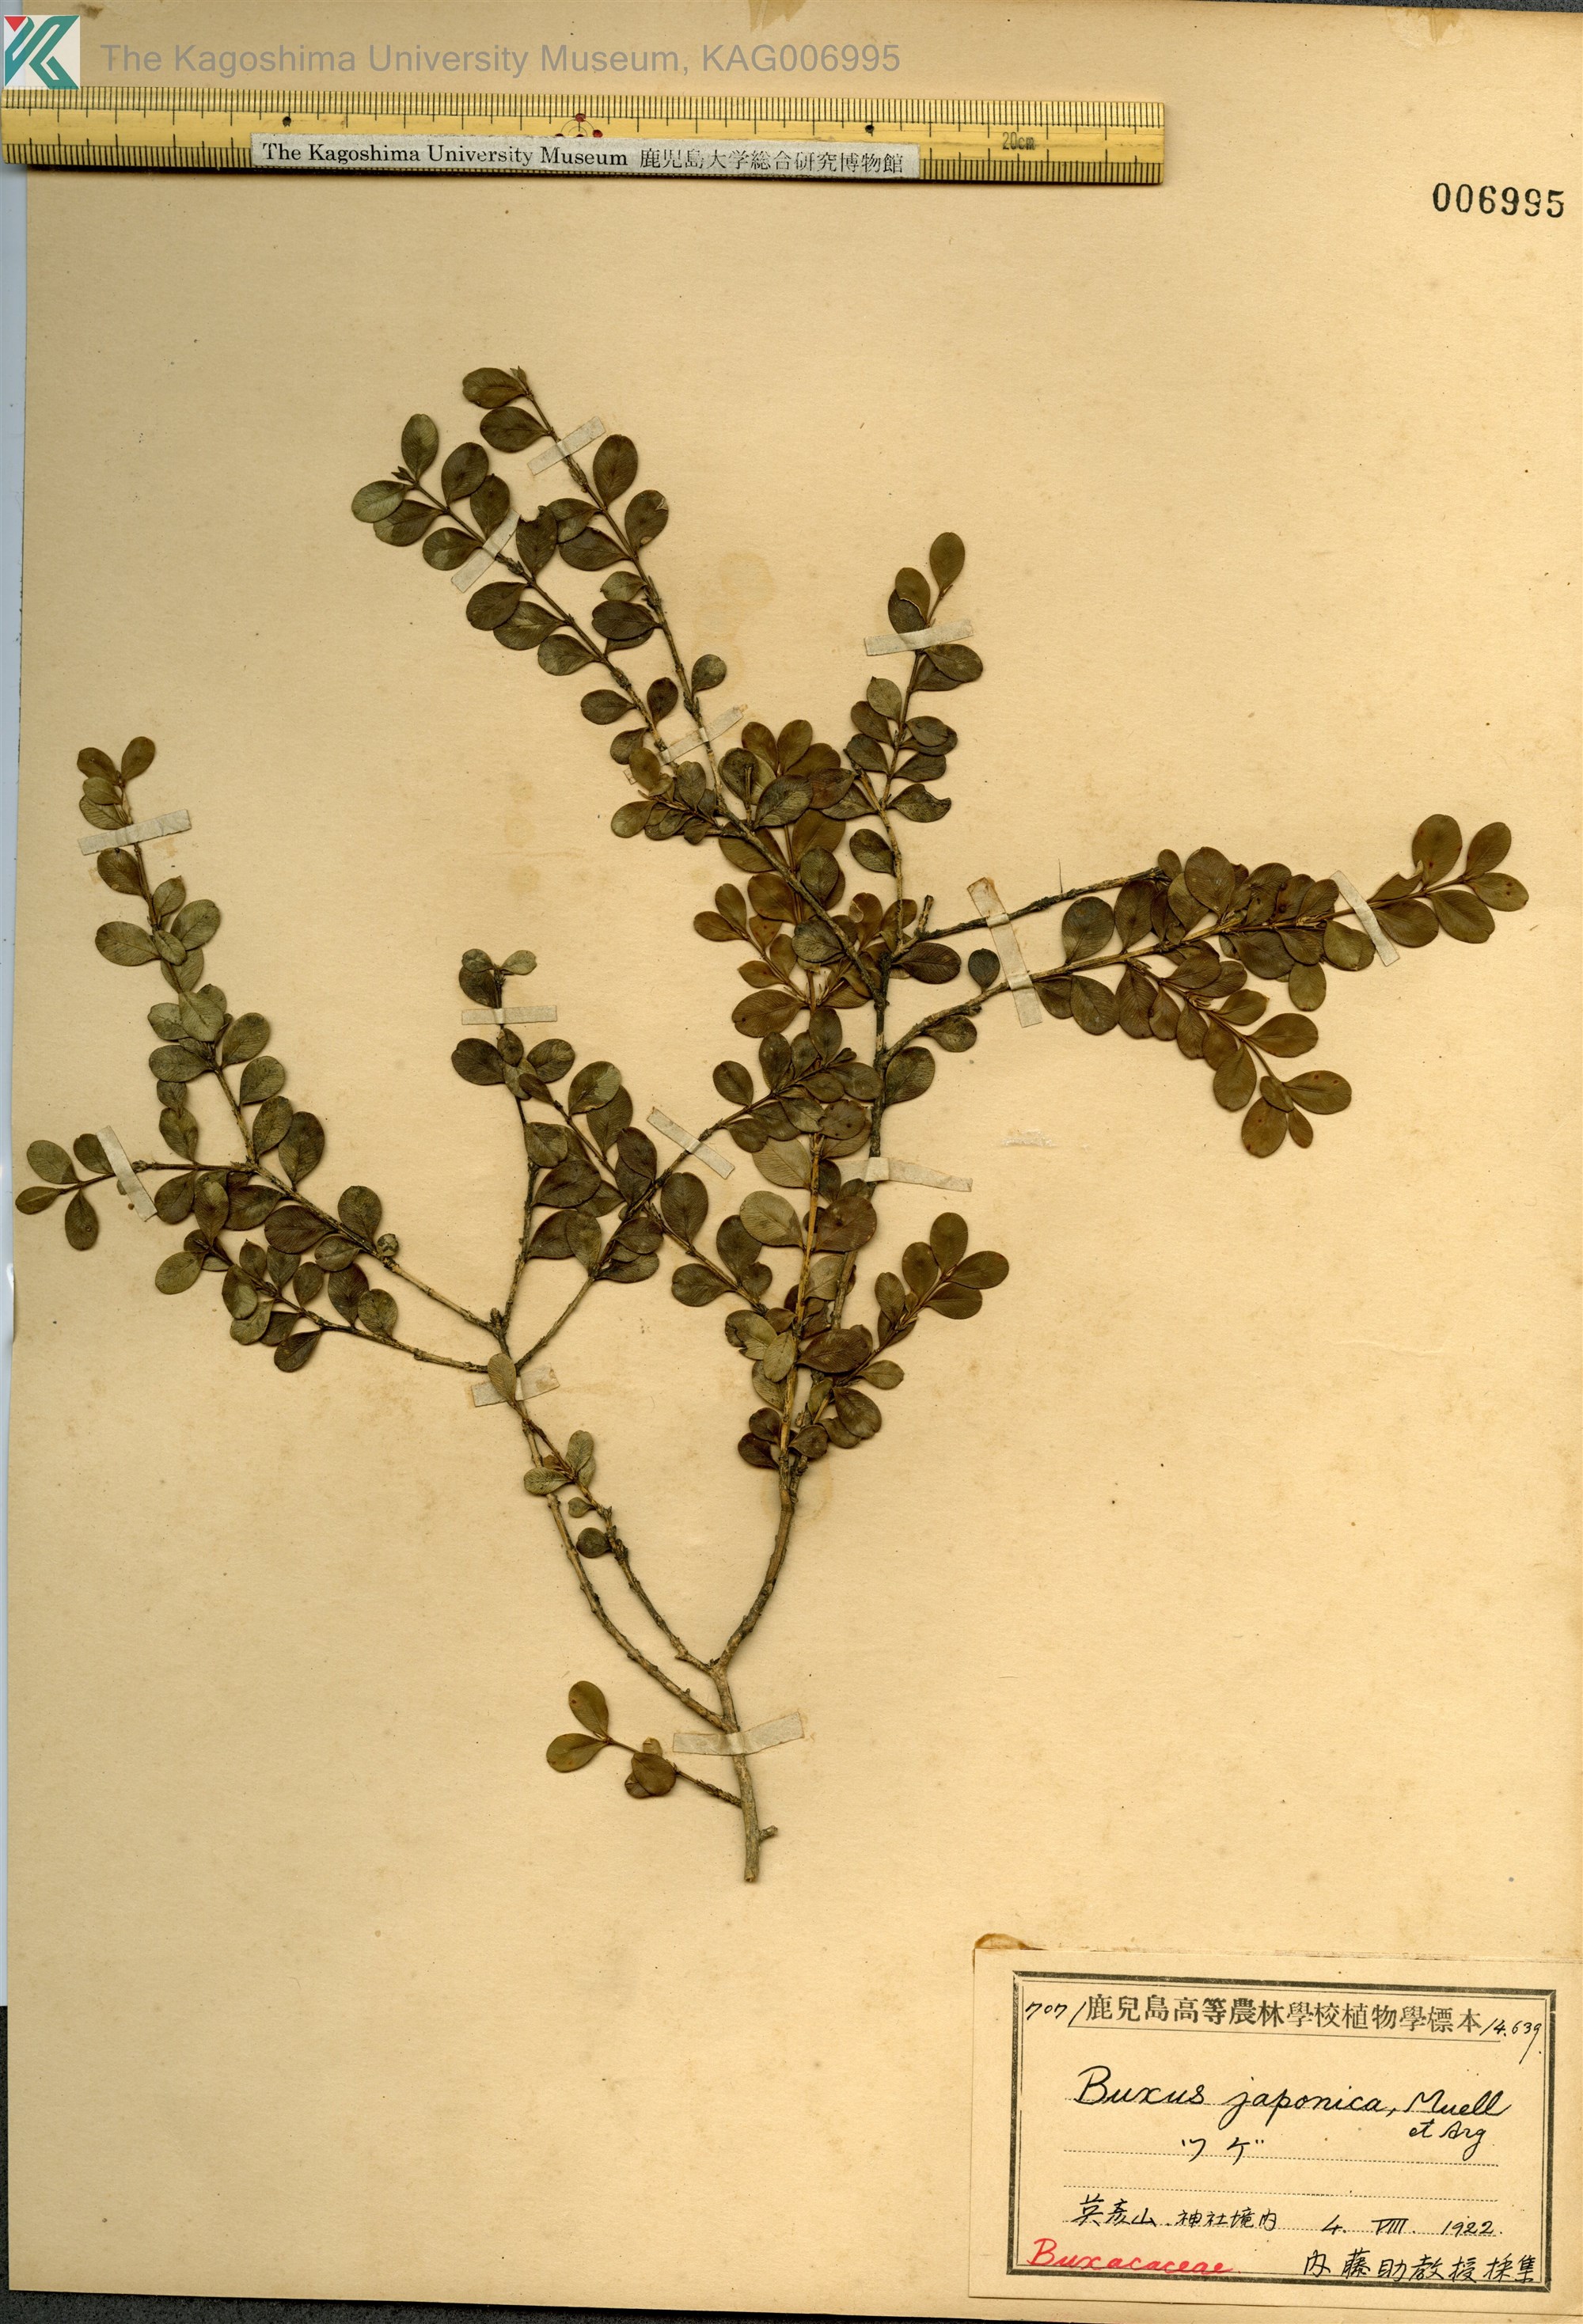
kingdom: Plantae
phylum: Tracheophyta
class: Magnoliopsida
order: Buxales
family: Buxaceae
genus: Buxus
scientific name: Buxus microphylla
